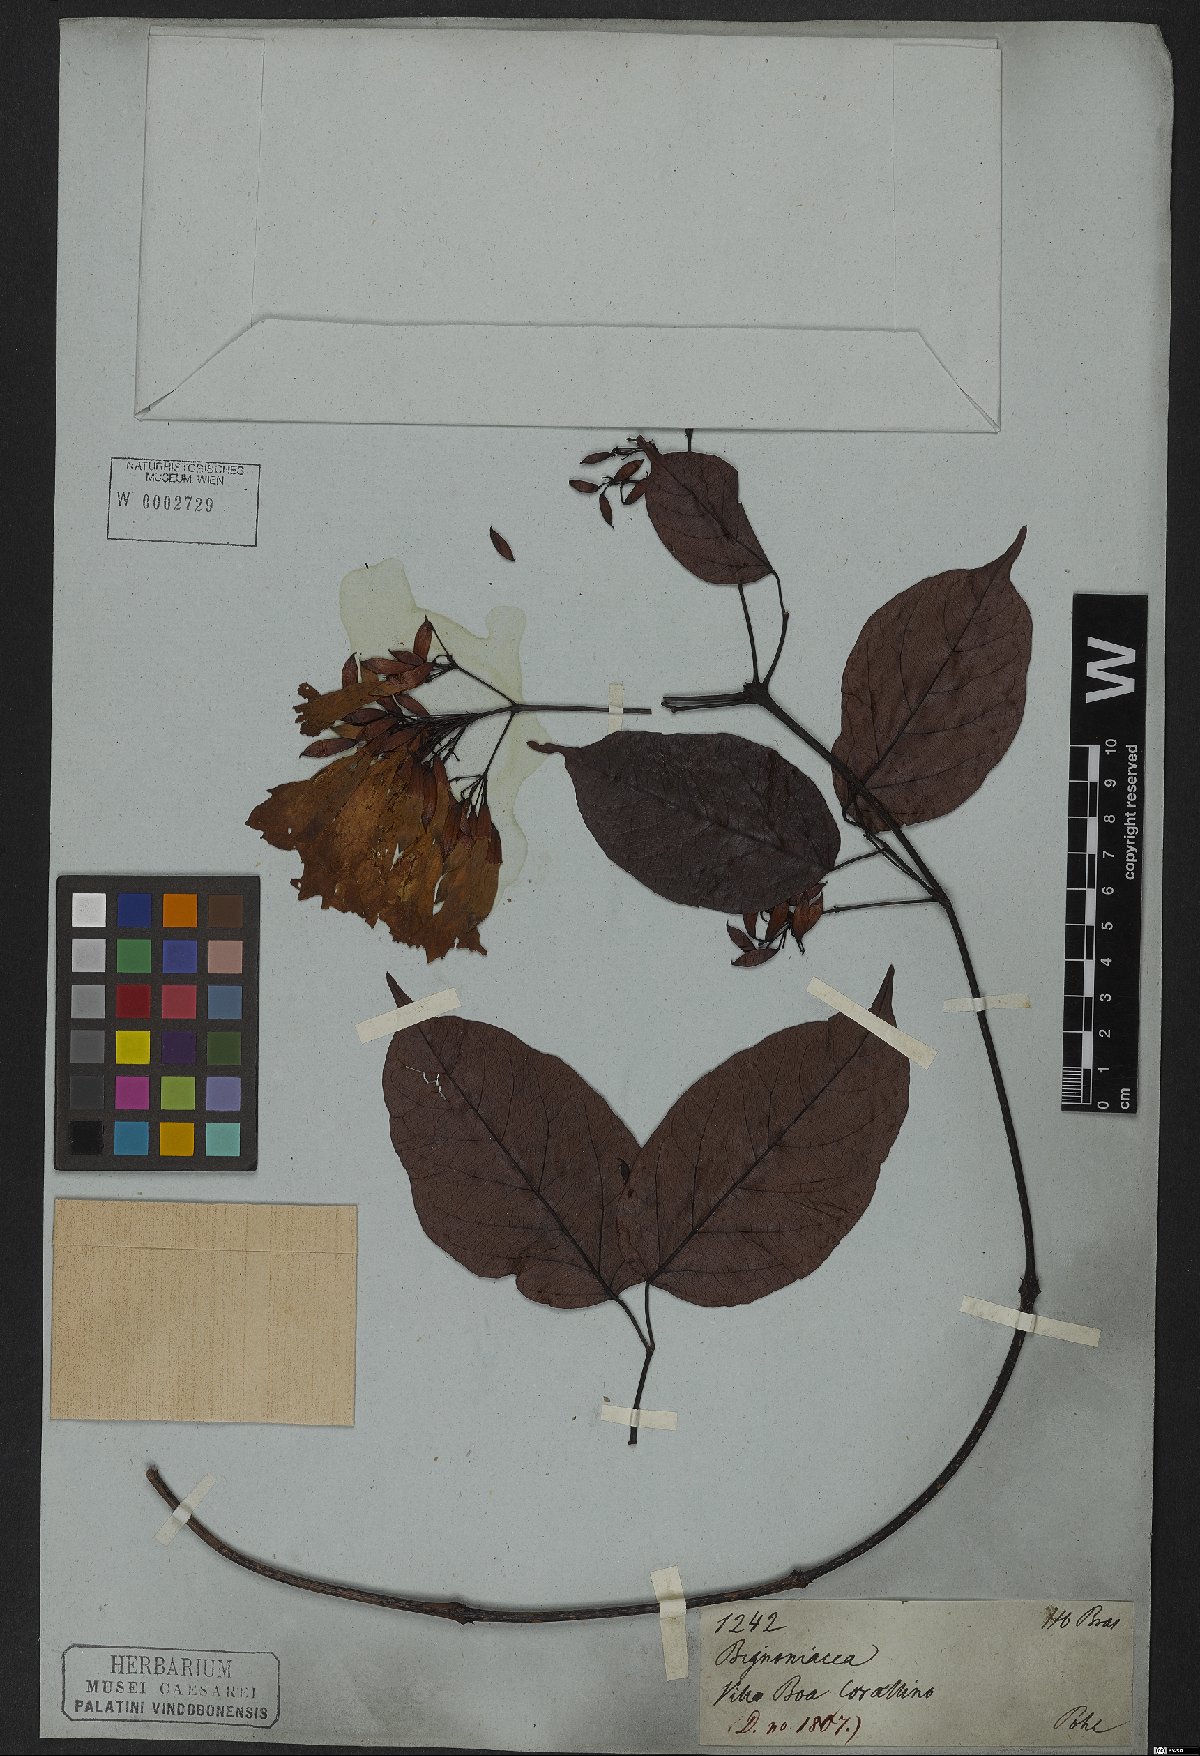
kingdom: Plantae
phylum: Tracheophyta
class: Magnoliopsida
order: Lamiales
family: Bignoniaceae
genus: Lundia
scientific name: Lundia obliqua
